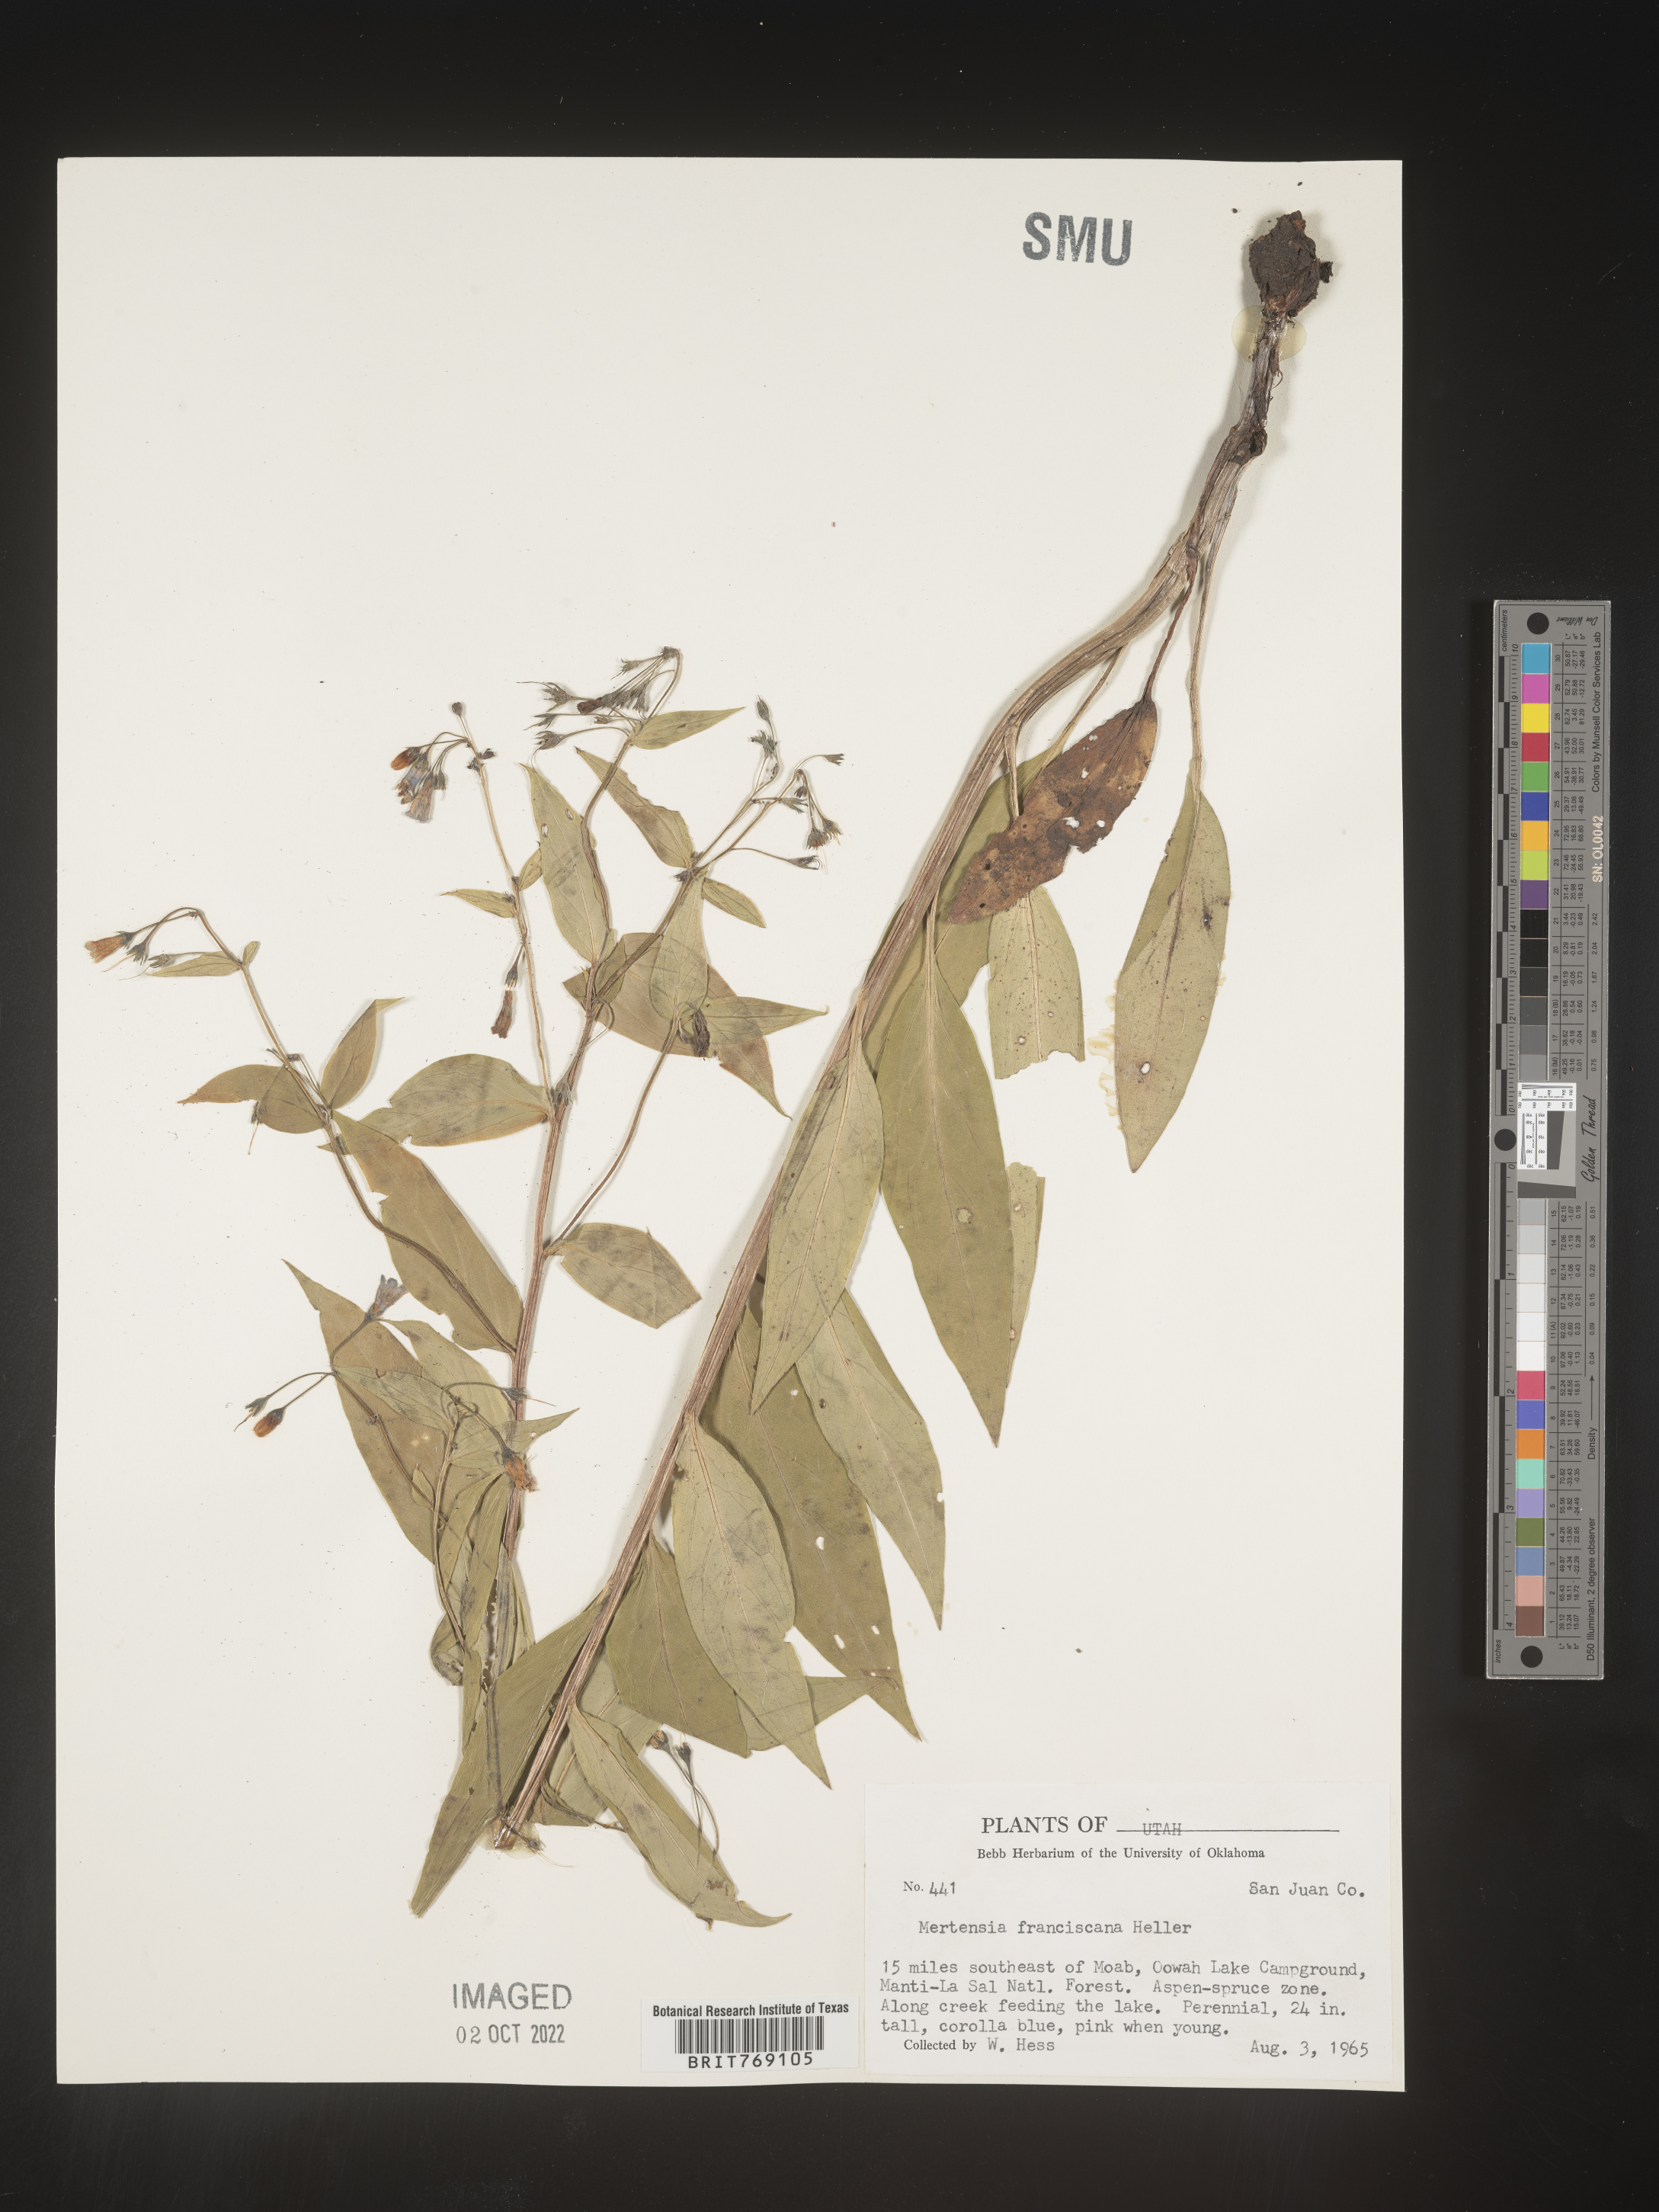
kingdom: Plantae
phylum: Tracheophyta
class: Magnoliopsida
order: Boraginales
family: Boraginaceae
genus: Mertensia
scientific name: Mertensia
